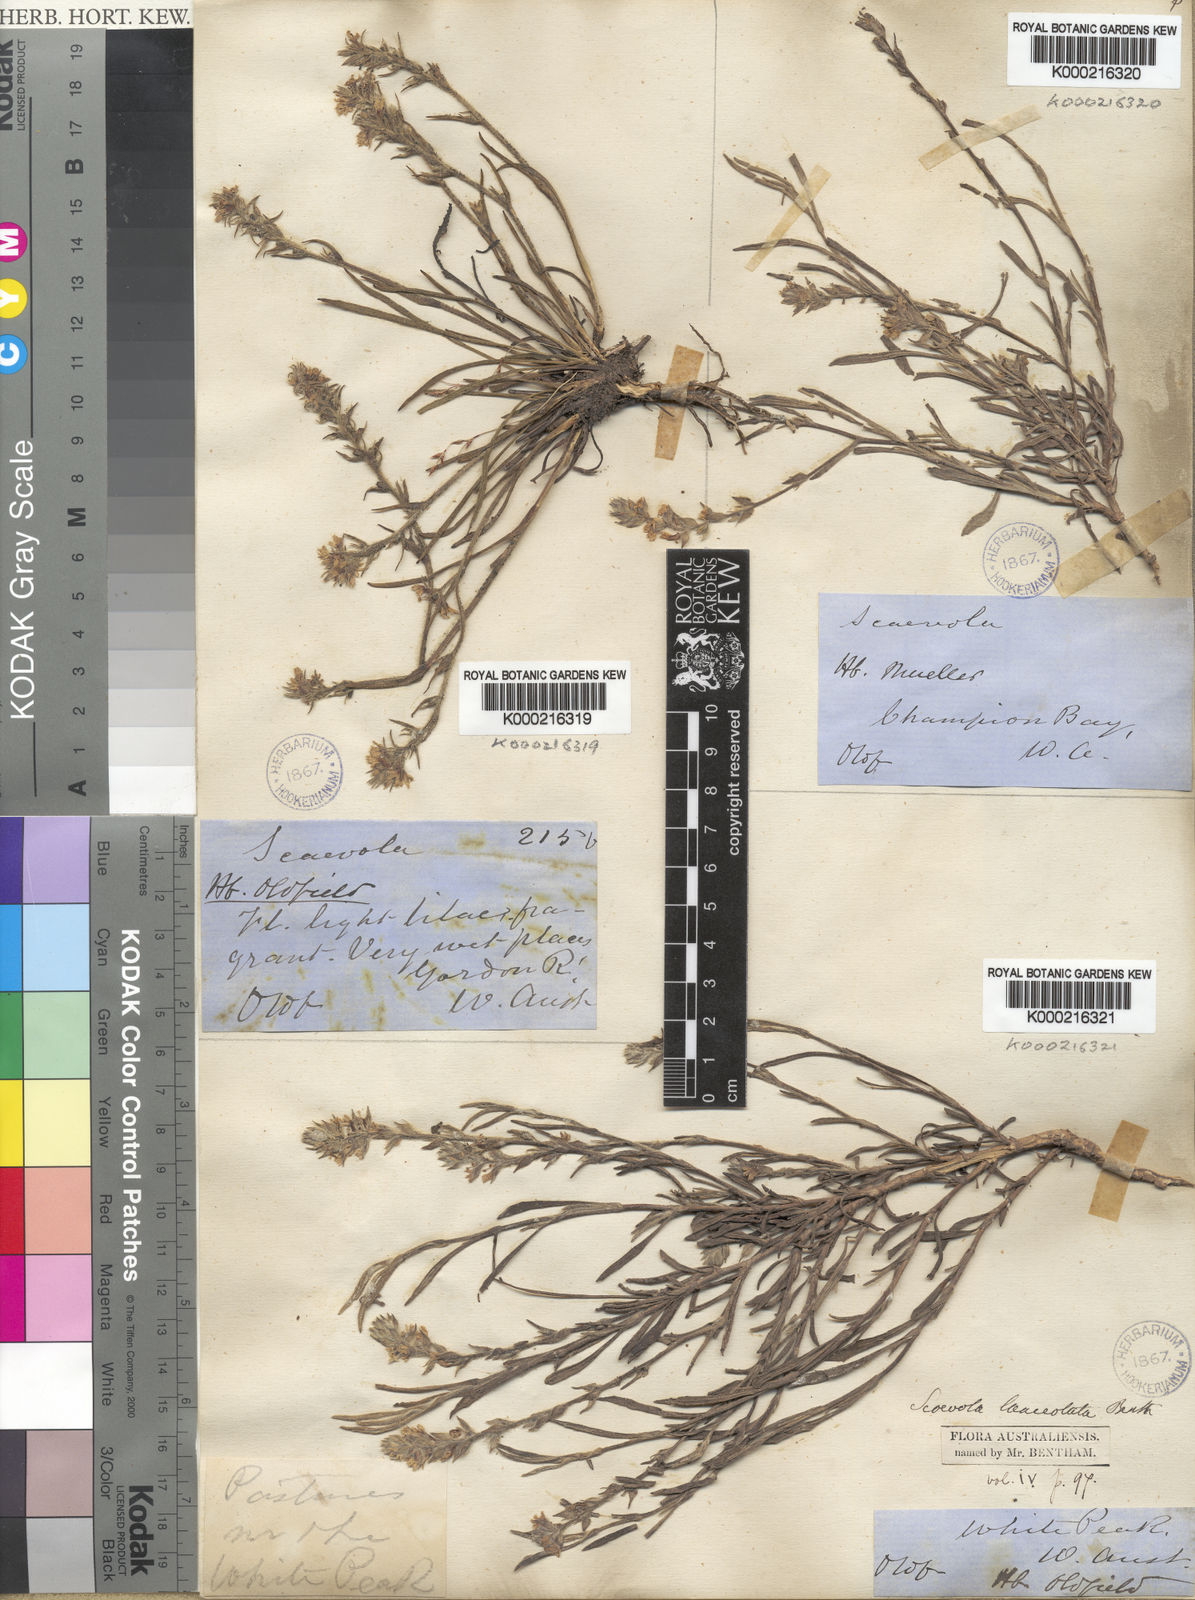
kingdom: Plantae
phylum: Tracheophyta
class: Magnoliopsida
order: Asterales
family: Goodeniaceae
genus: Scaevola
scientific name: Scaevola
